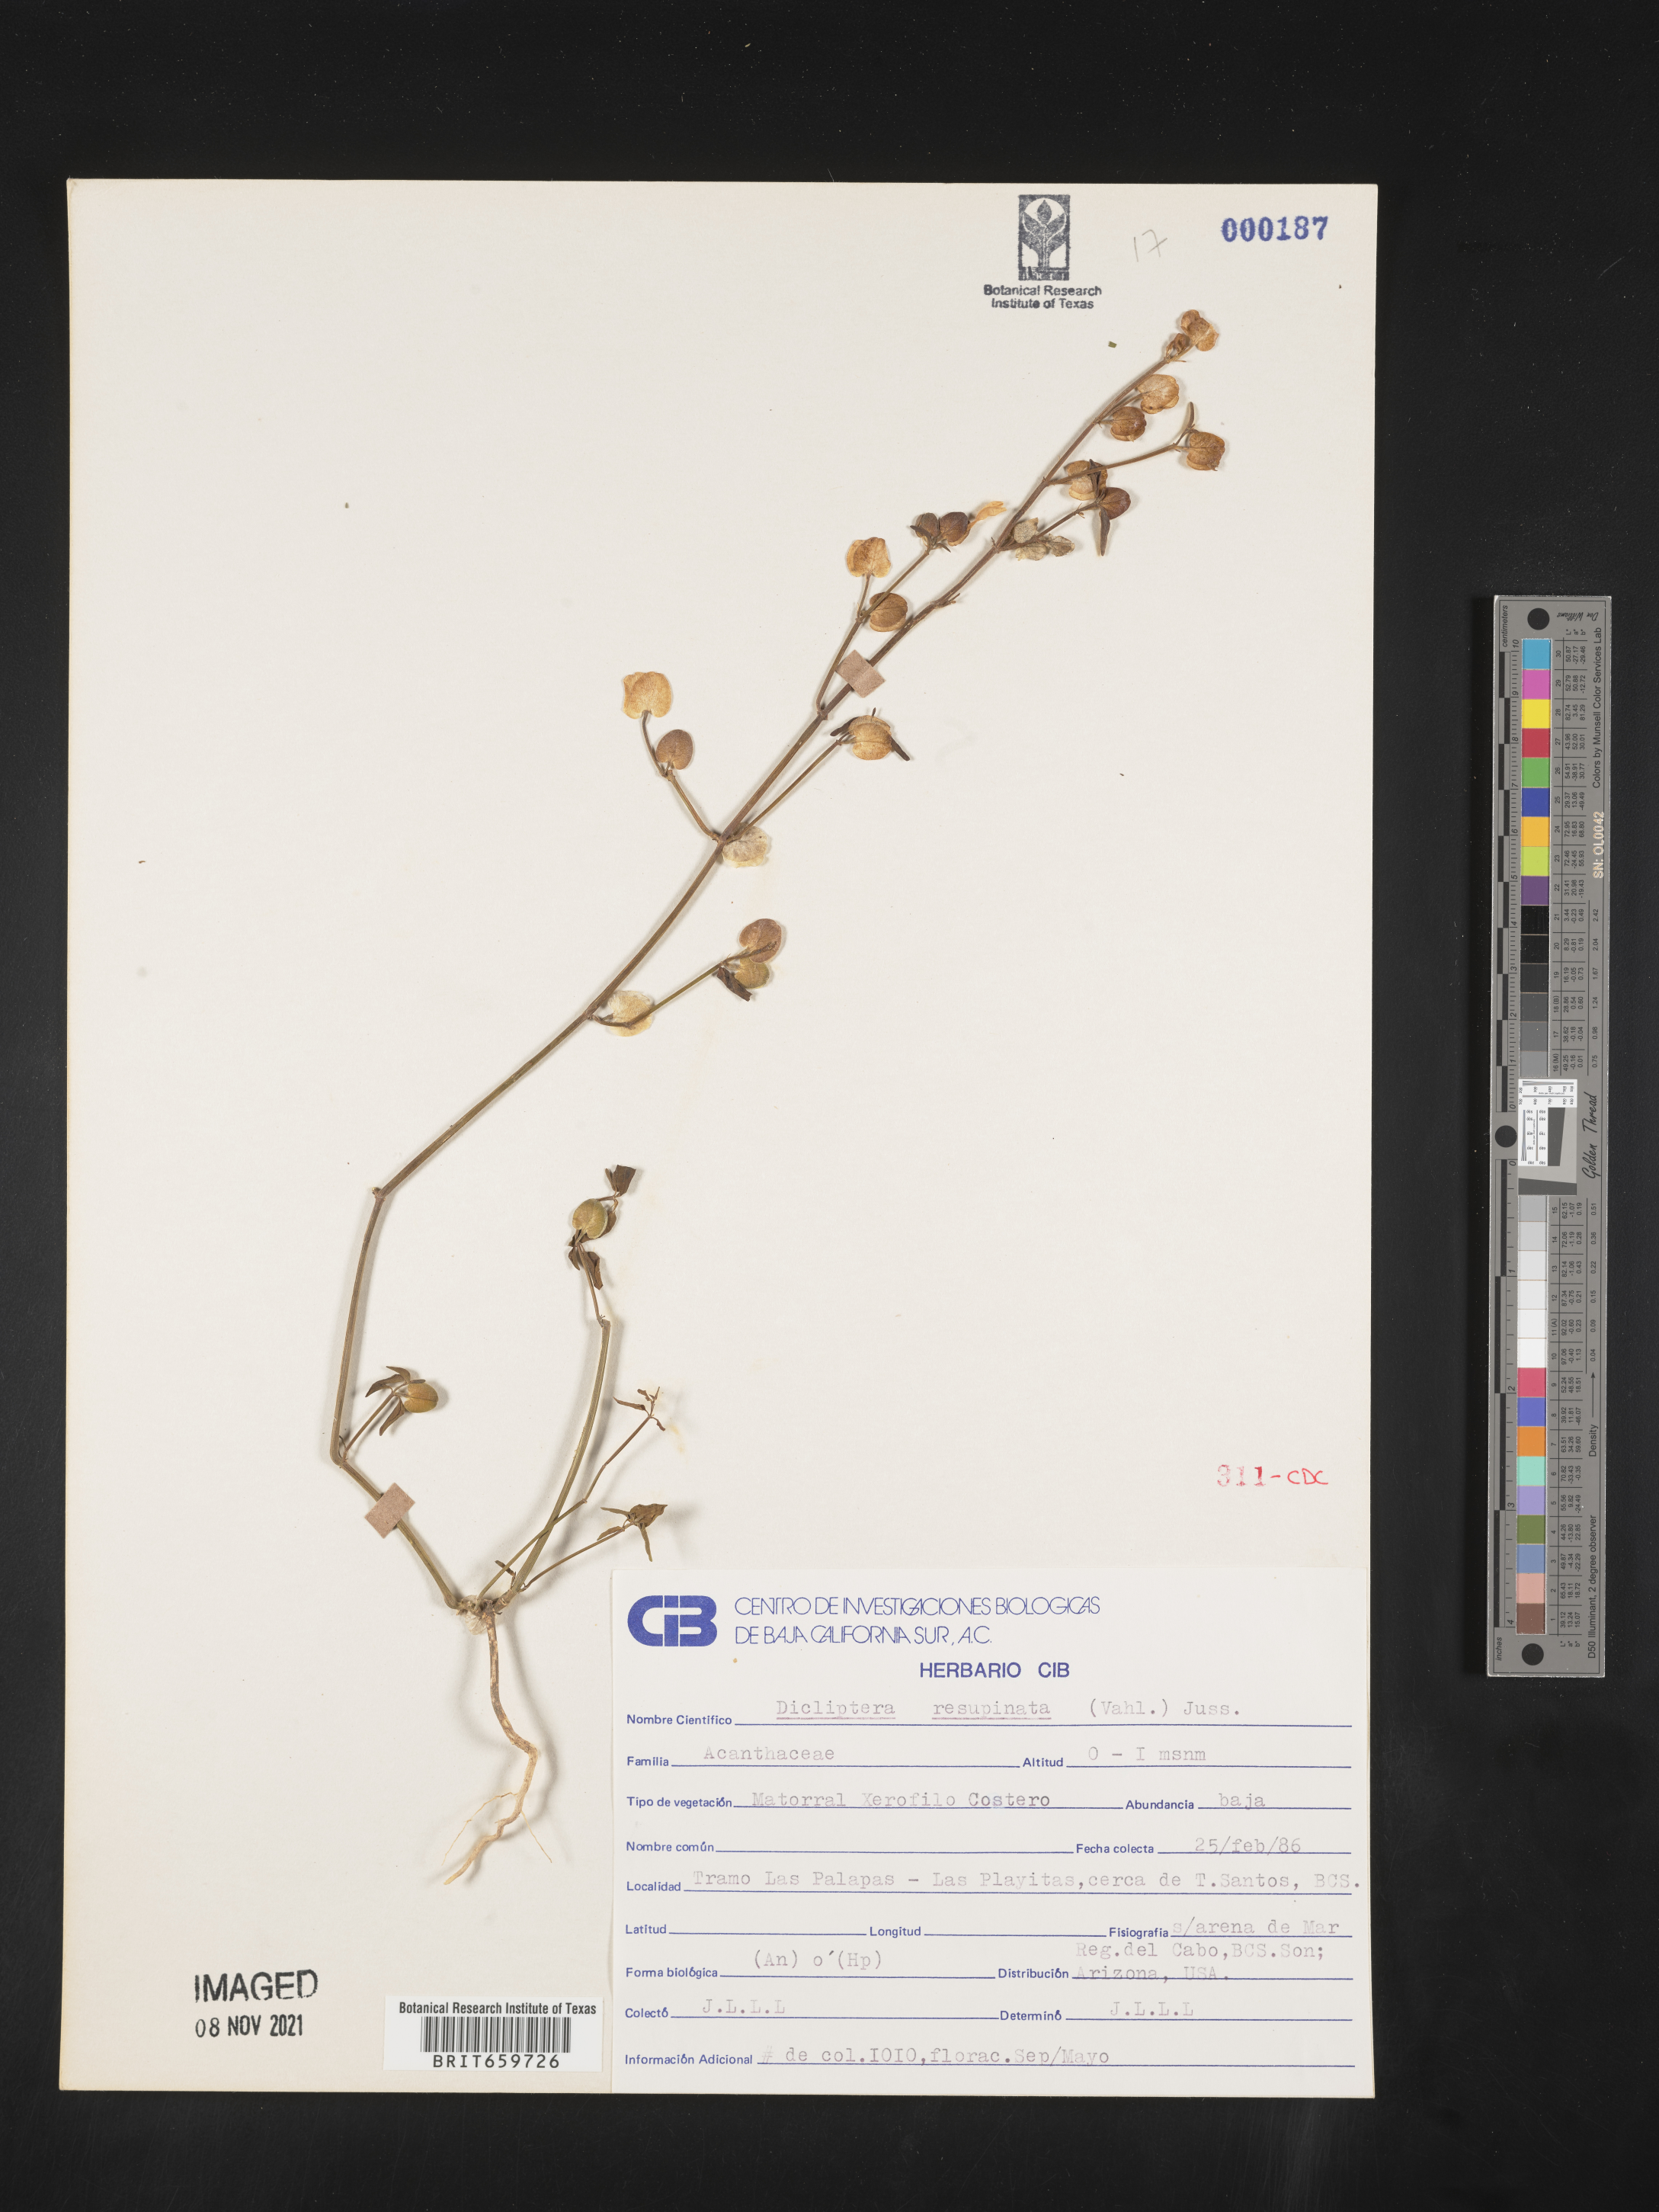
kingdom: Plantae
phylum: Tracheophyta
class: Magnoliopsida
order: Lamiales
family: Acanthaceae
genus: Dicliptera
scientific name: Dicliptera
